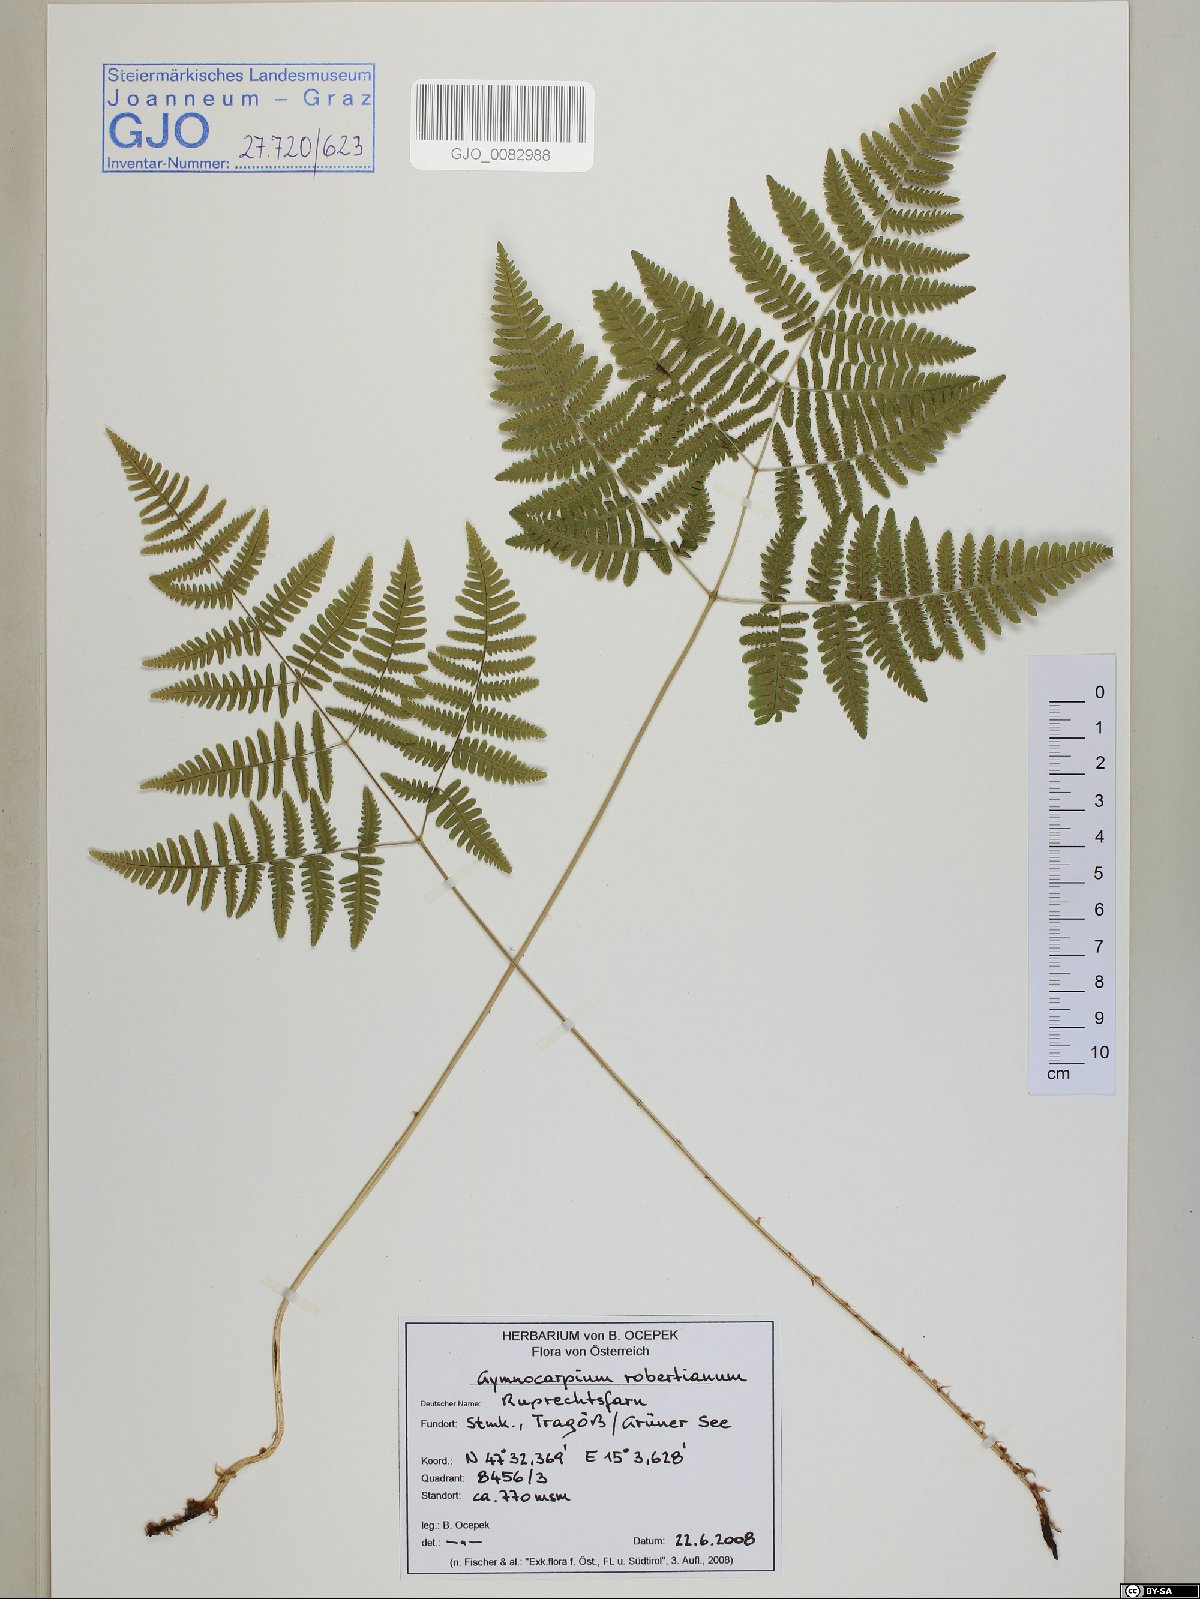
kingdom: Plantae
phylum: Tracheophyta
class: Polypodiopsida
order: Polypodiales
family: Cystopteridaceae
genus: Gymnocarpium
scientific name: Gymnocarpium robertianum
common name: Limestone fern
